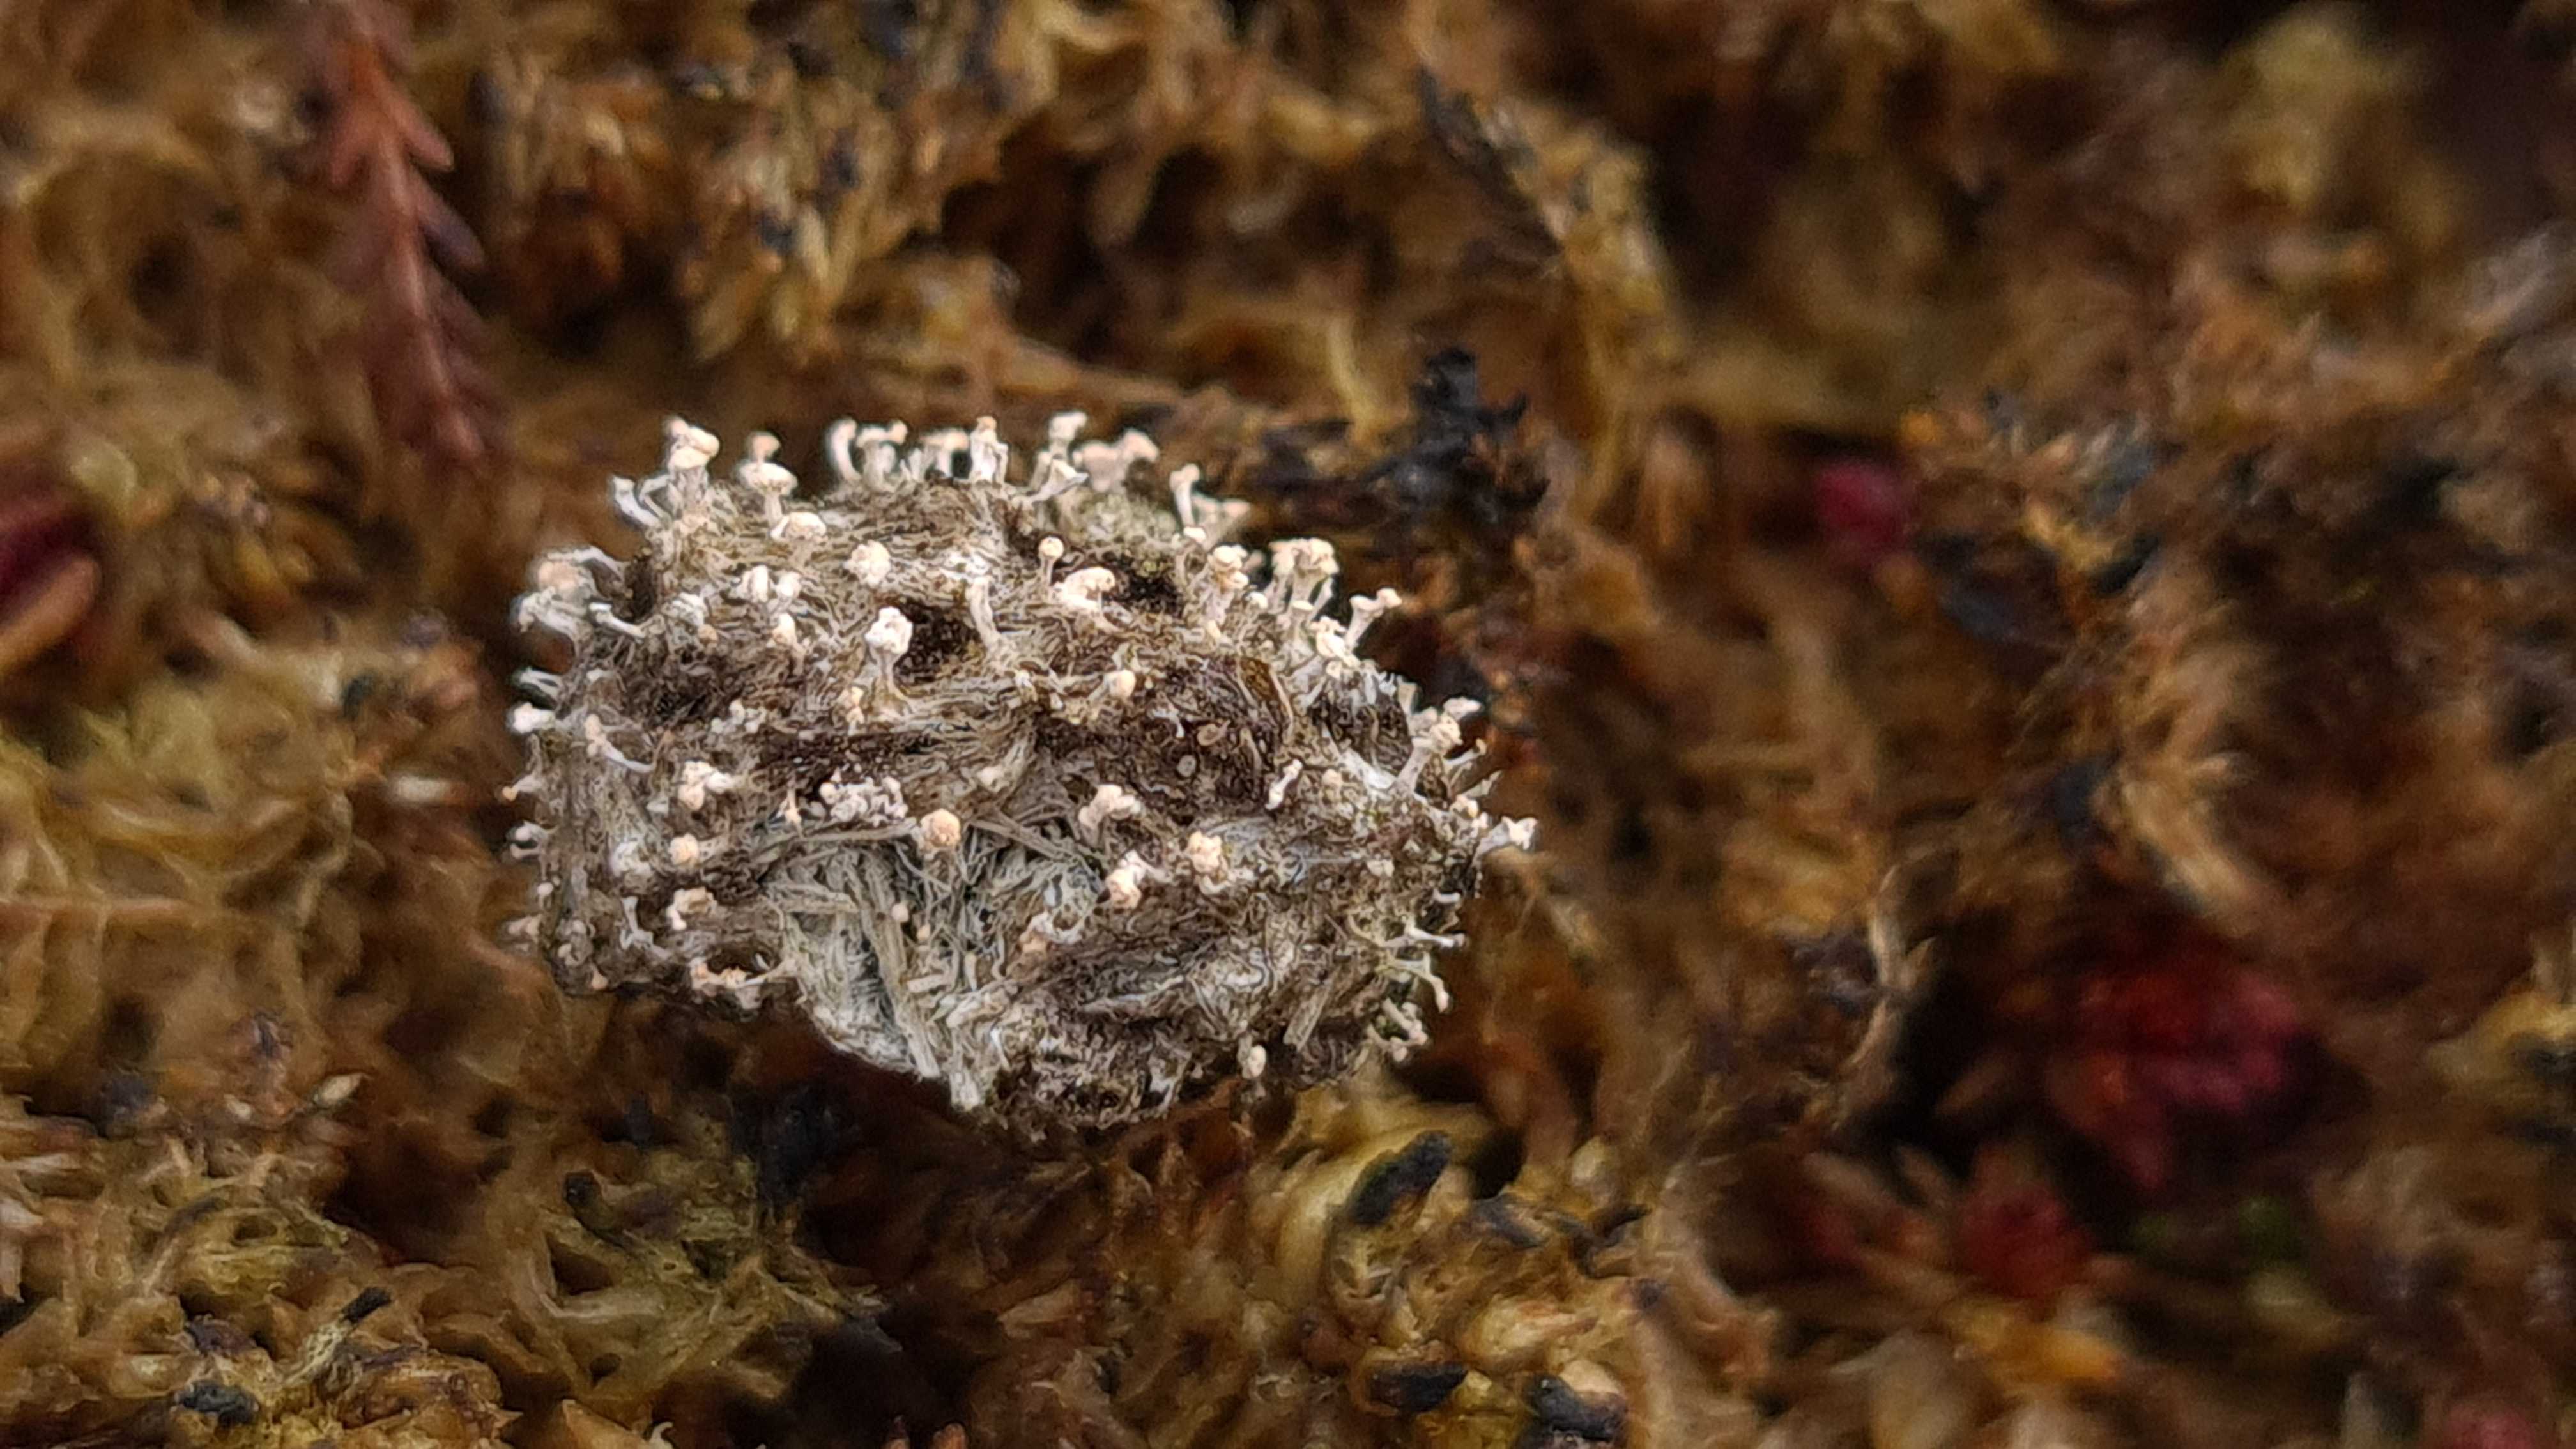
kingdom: Fungi
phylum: Ascomycota
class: Sordariomycetes
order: Hypocreales
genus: Stilbella
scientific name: Stilbella fimetaria
